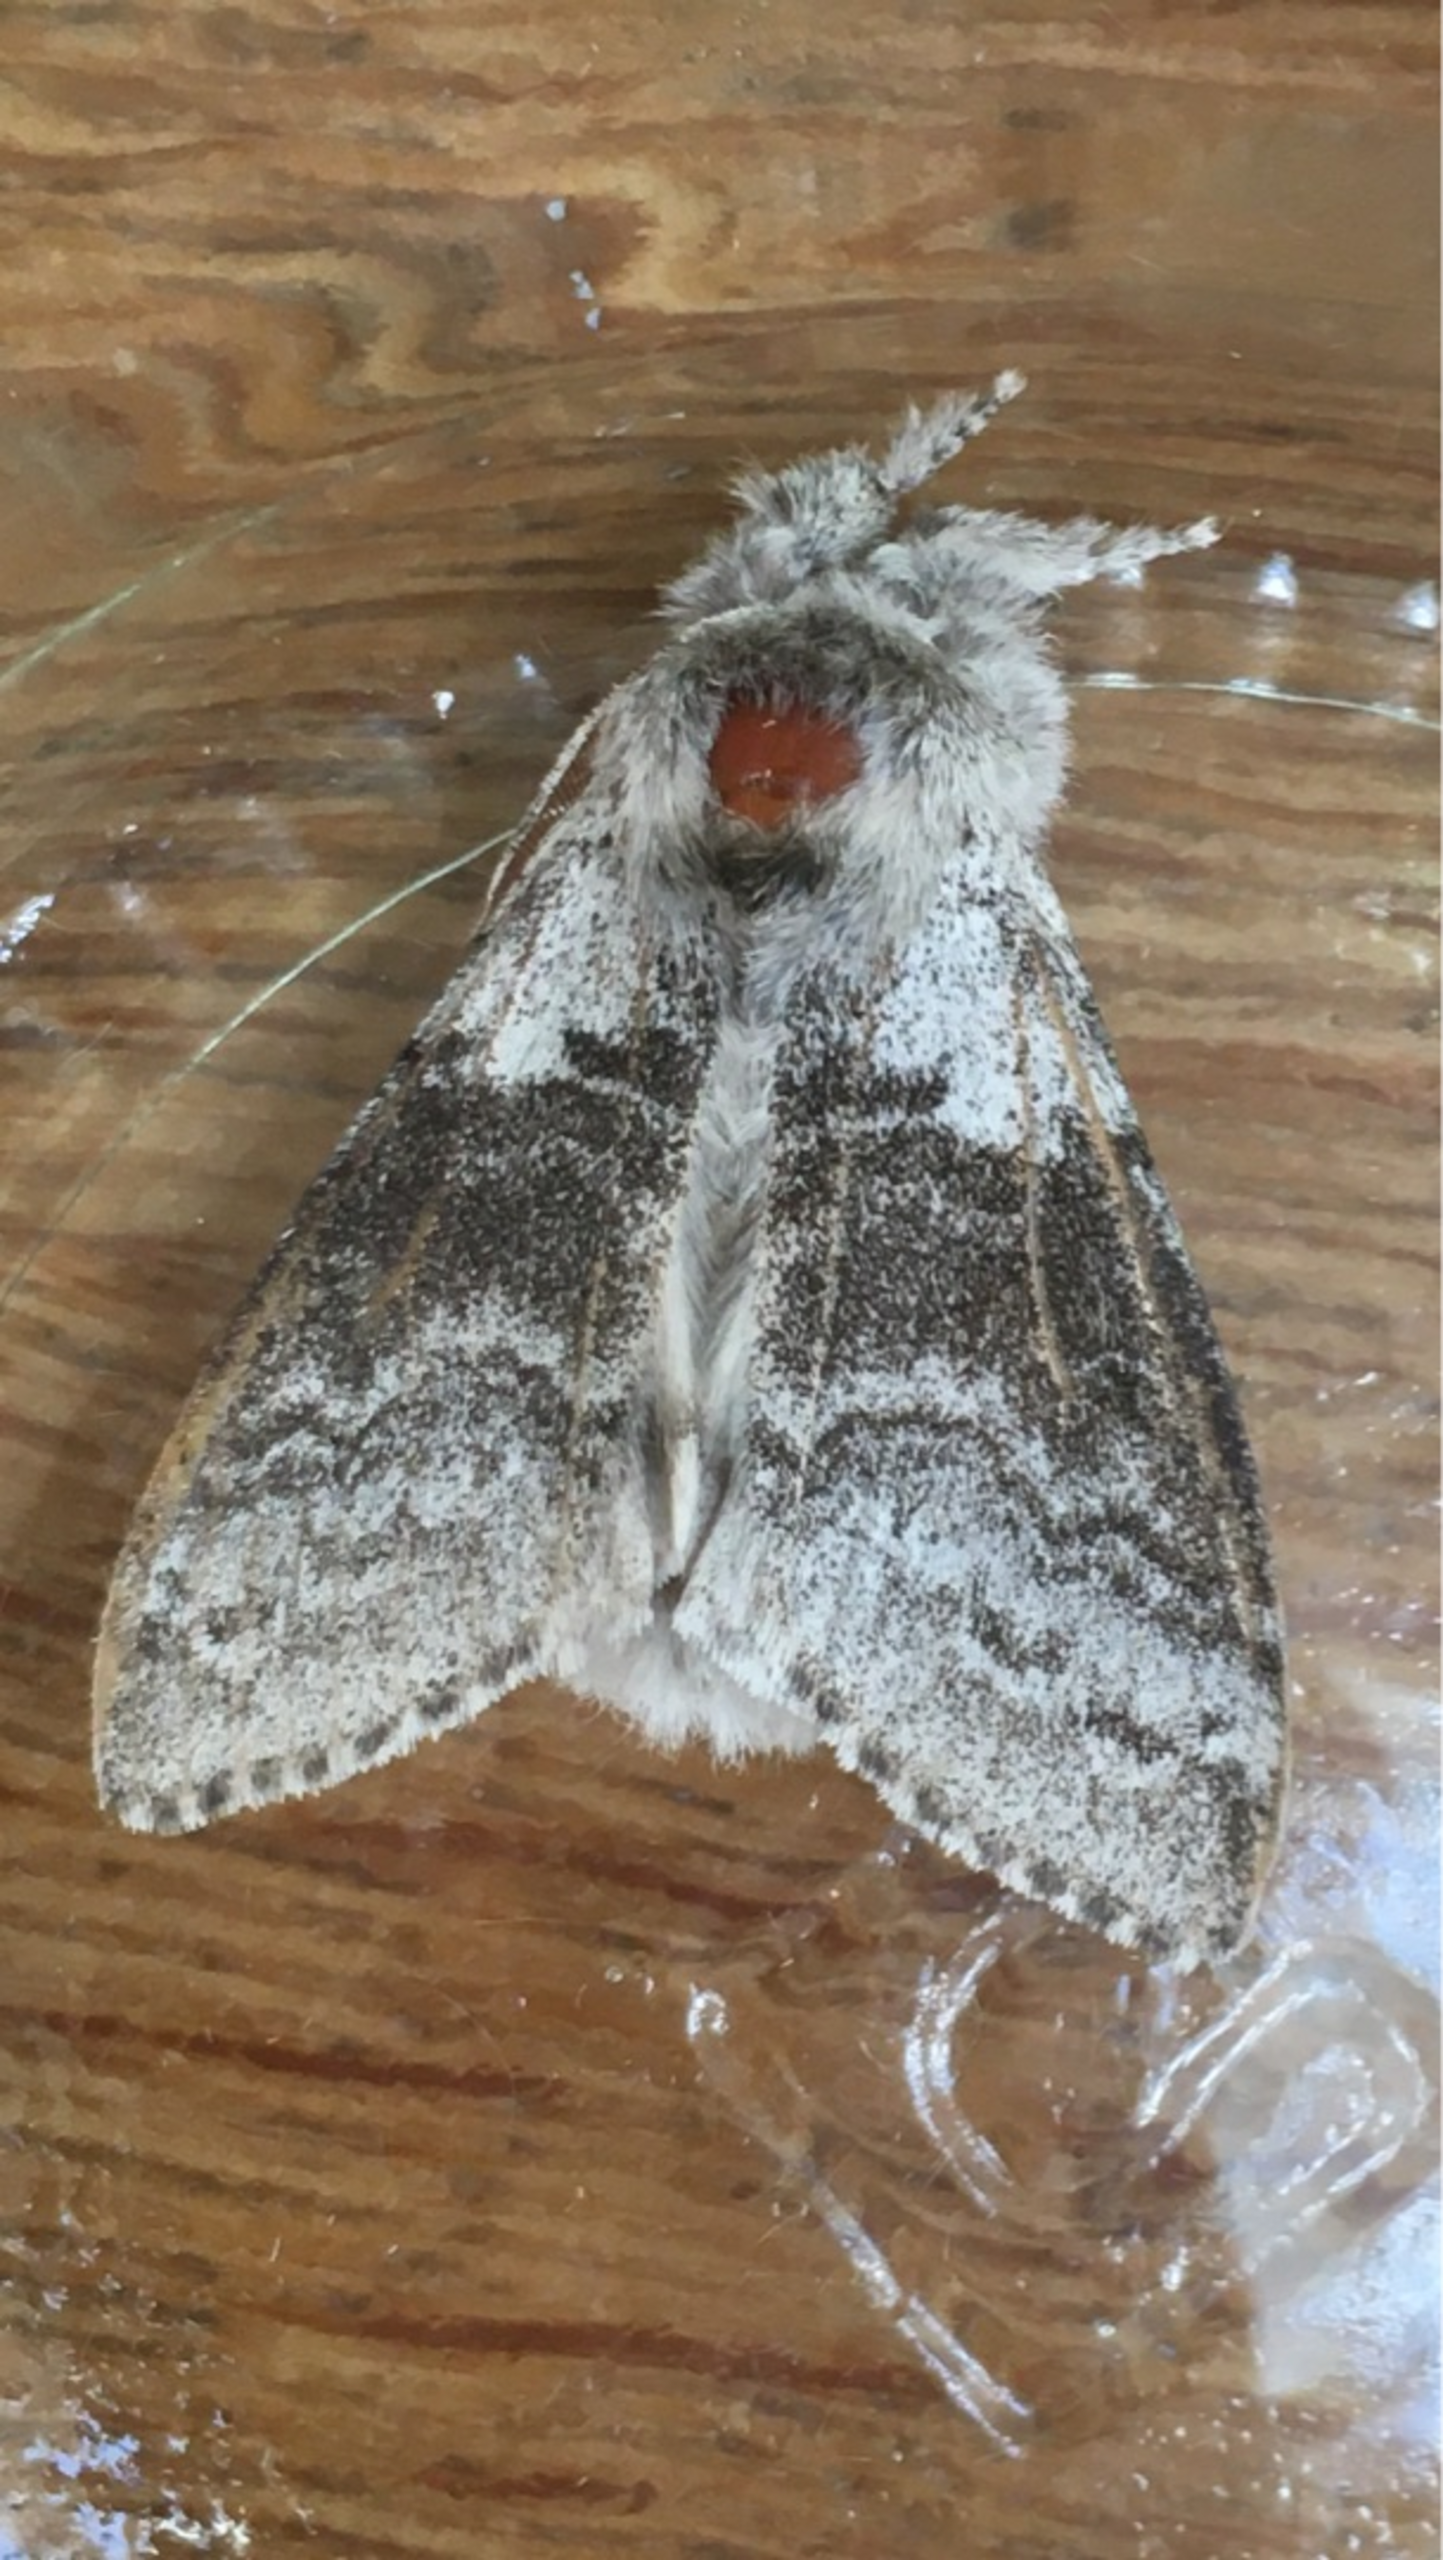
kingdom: Animalia
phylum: Arthropoda
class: Insecta
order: Lepidoptera
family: Erebidae
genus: Calliteara
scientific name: Calliteara pudibunda
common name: Bøgenonne
